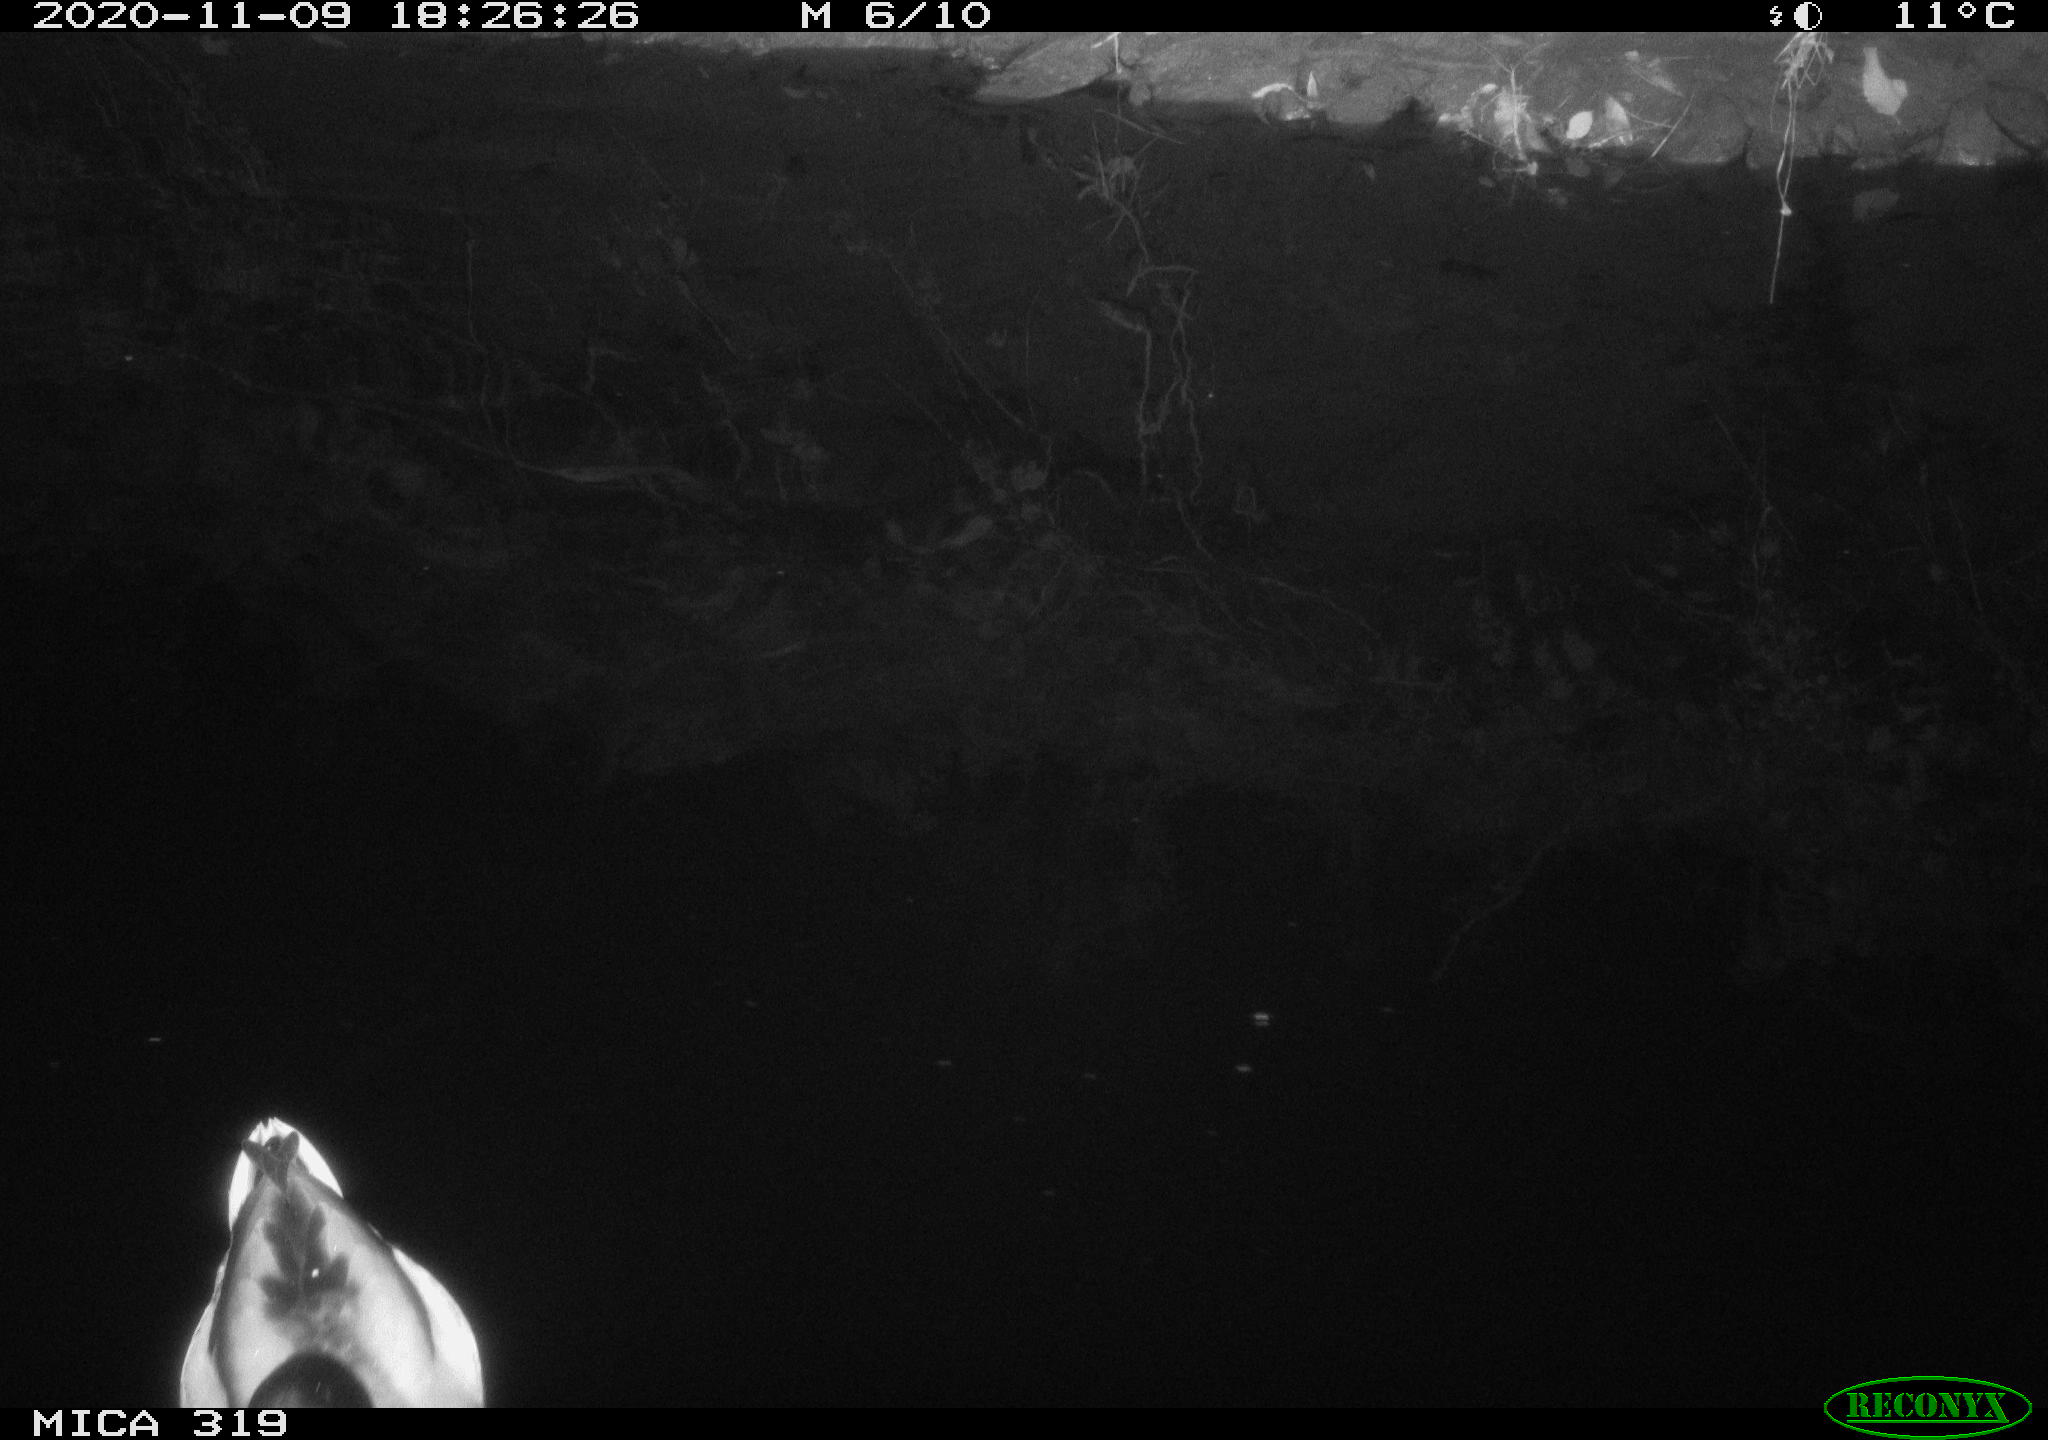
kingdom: Animalia
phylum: Chordata
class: Aves
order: Anseriformes
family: Anatidae
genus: Anas
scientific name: Anas platyrhynchos
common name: Mallard
